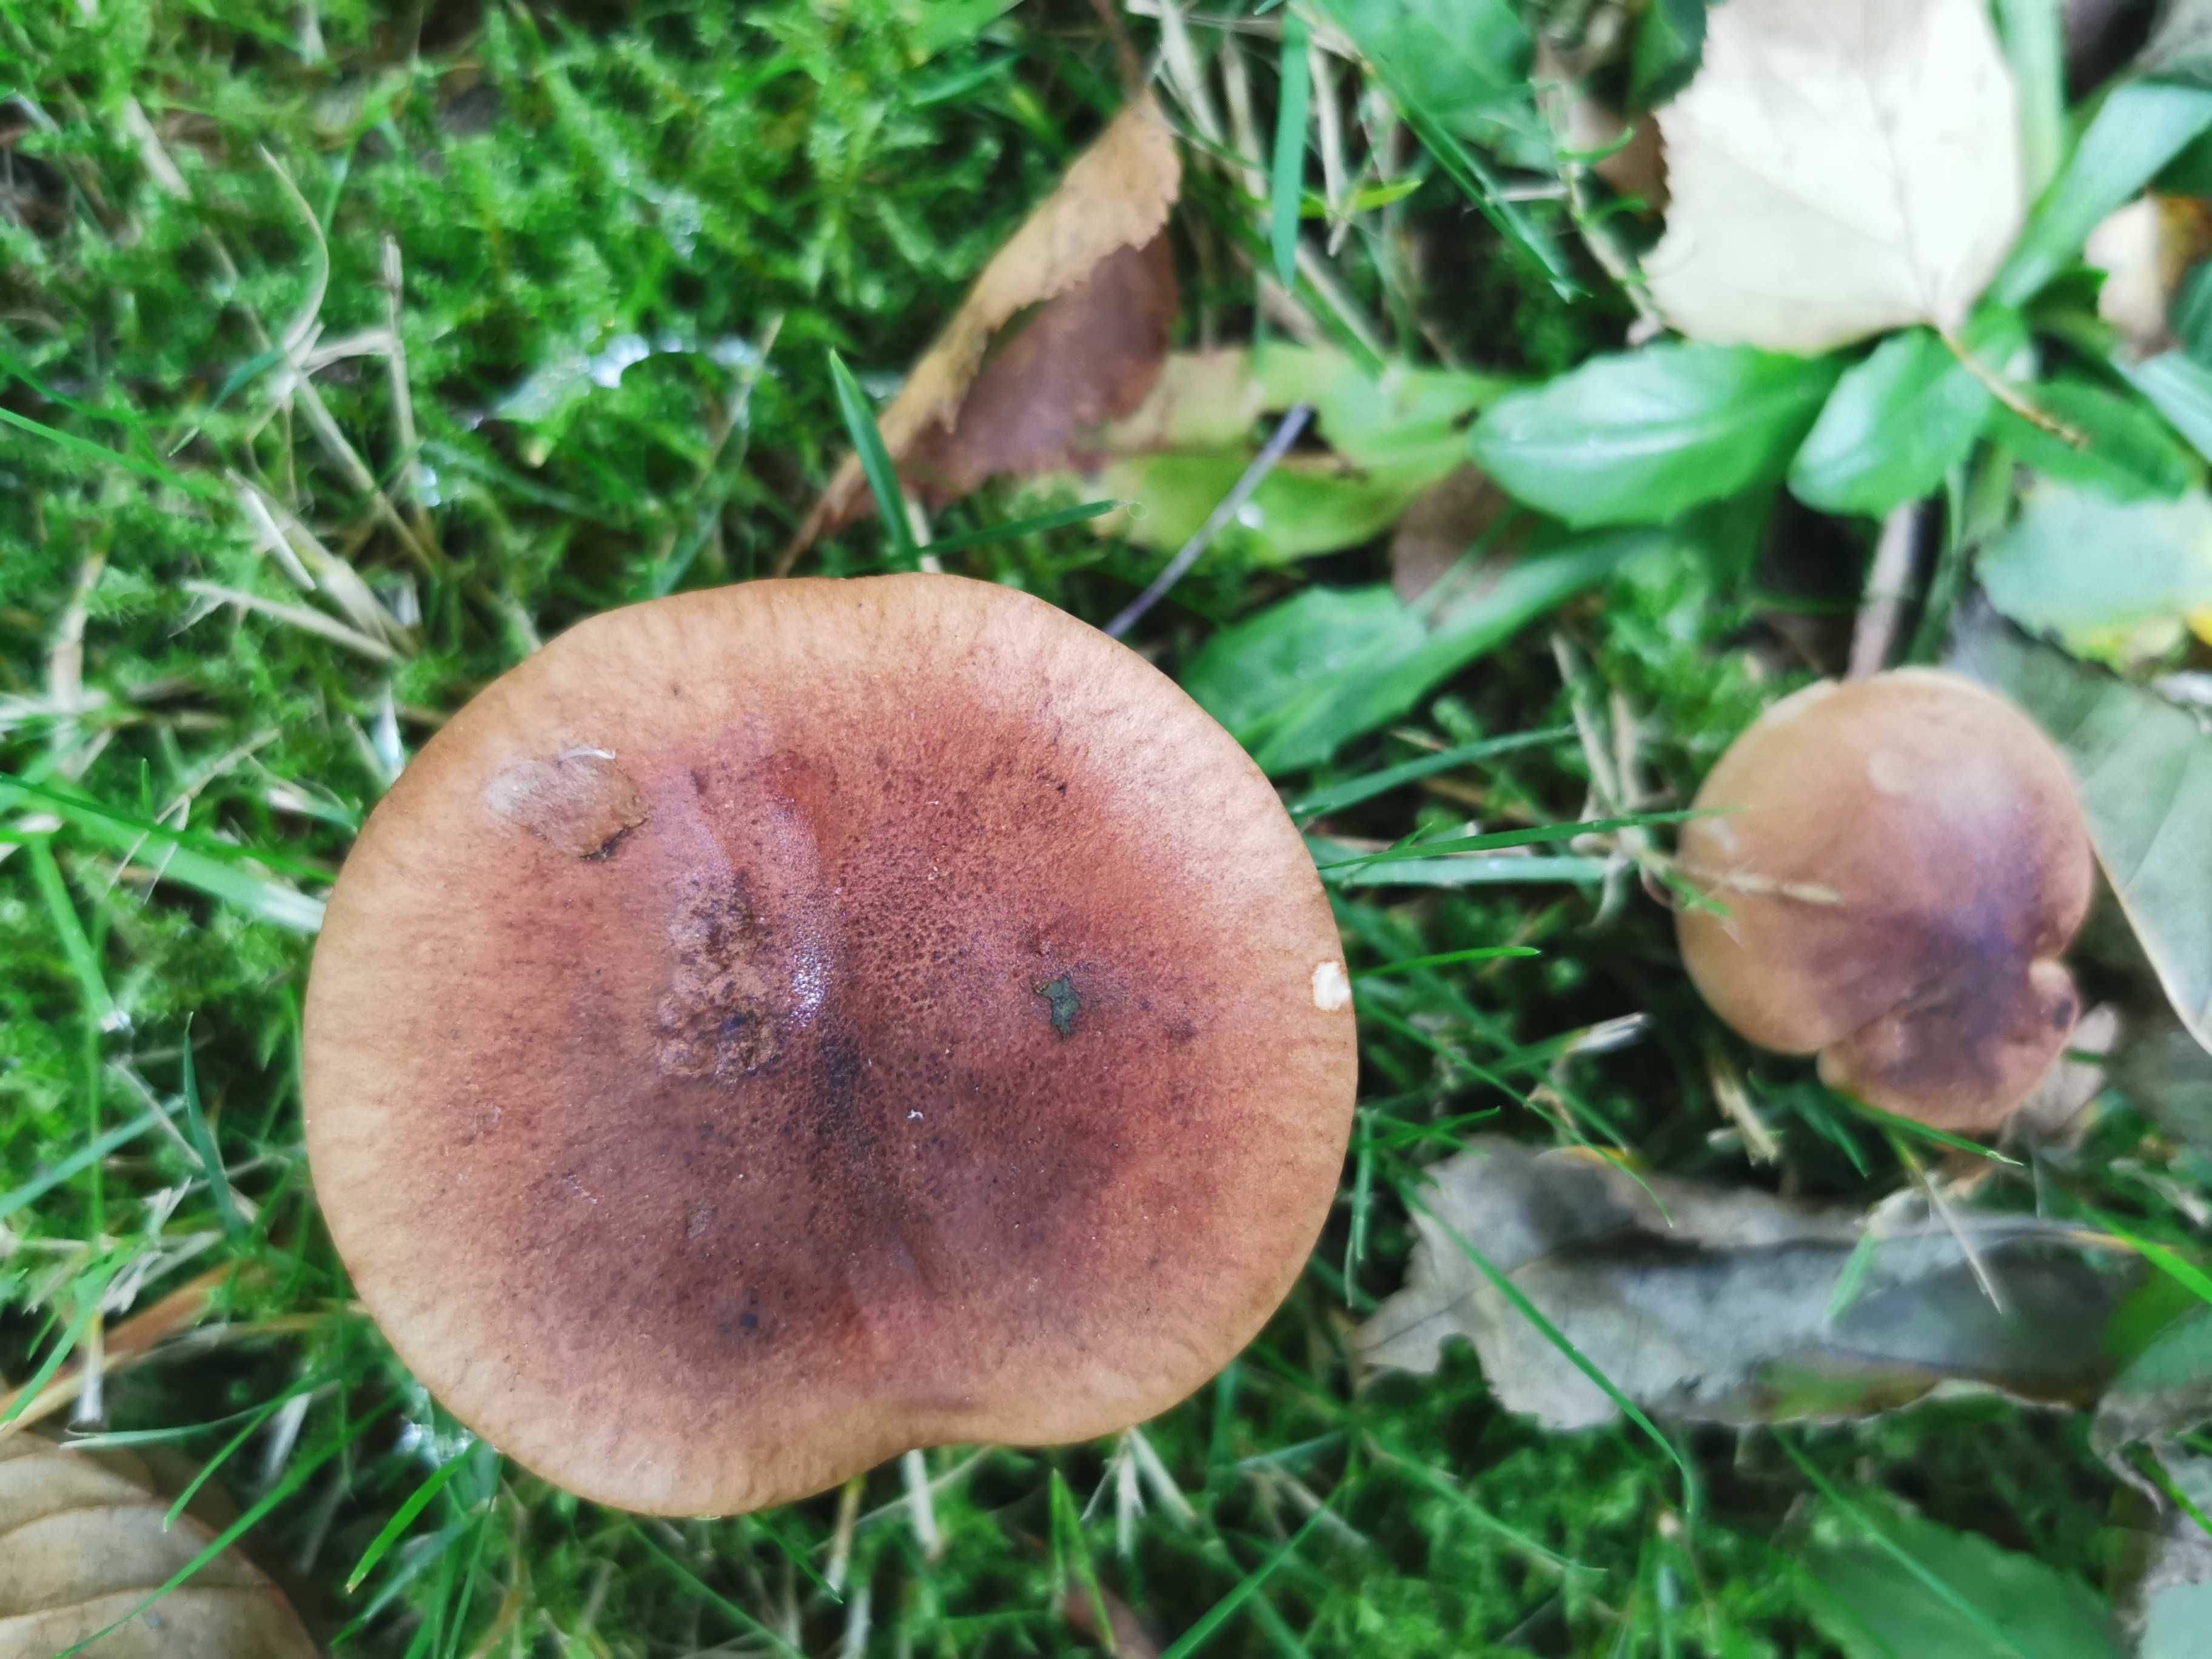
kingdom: Fungi
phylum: Basidiomycota
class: Agaricomycetes
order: Agaricales
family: Tricholomataceae
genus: Tricholoma
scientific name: Tricholoma fulvum
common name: birke-ridderhat
